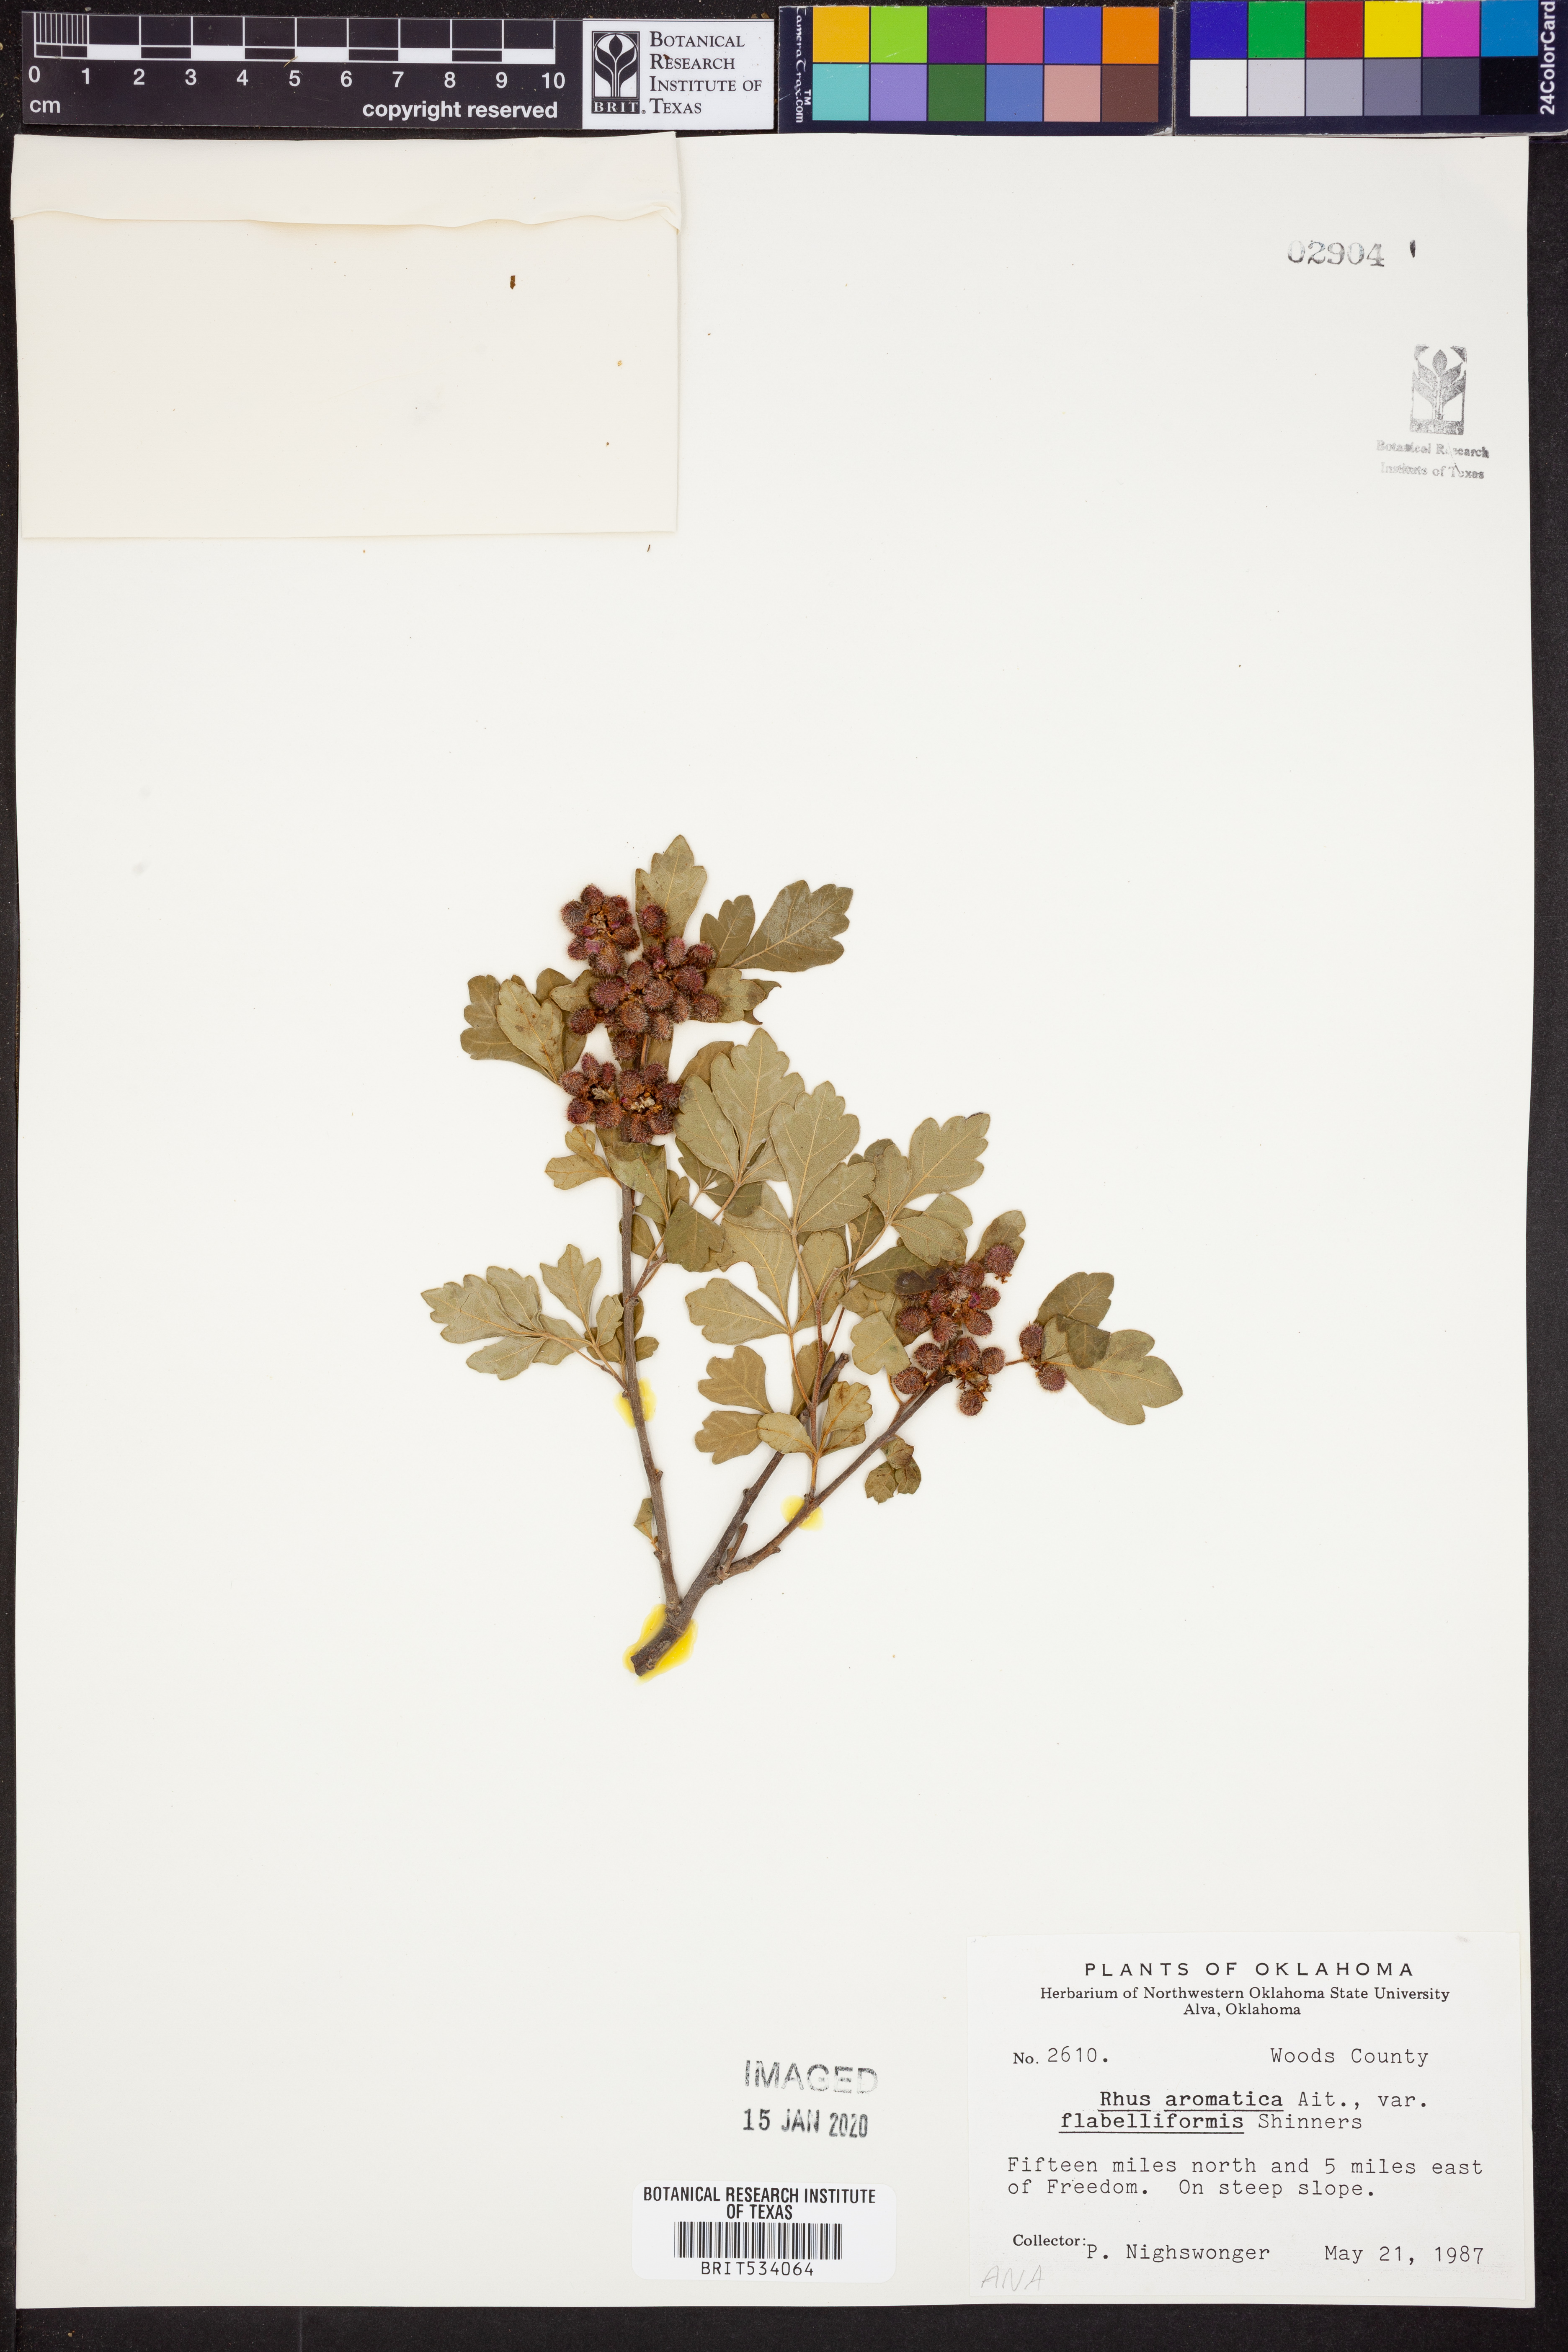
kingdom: Plantae
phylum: Tracheophyta
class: Magnoliopsida
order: Sapindales
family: Anacardiaceae
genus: Rhus
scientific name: Rhus trilobata
